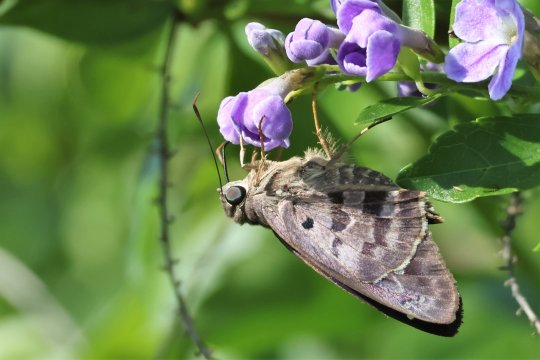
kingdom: Animalia
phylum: Arthropoda
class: Insecta
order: Lepidoptera
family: Hesperiidae
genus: Polygonus
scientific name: Polygonus leo
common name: Hammock Skipper
